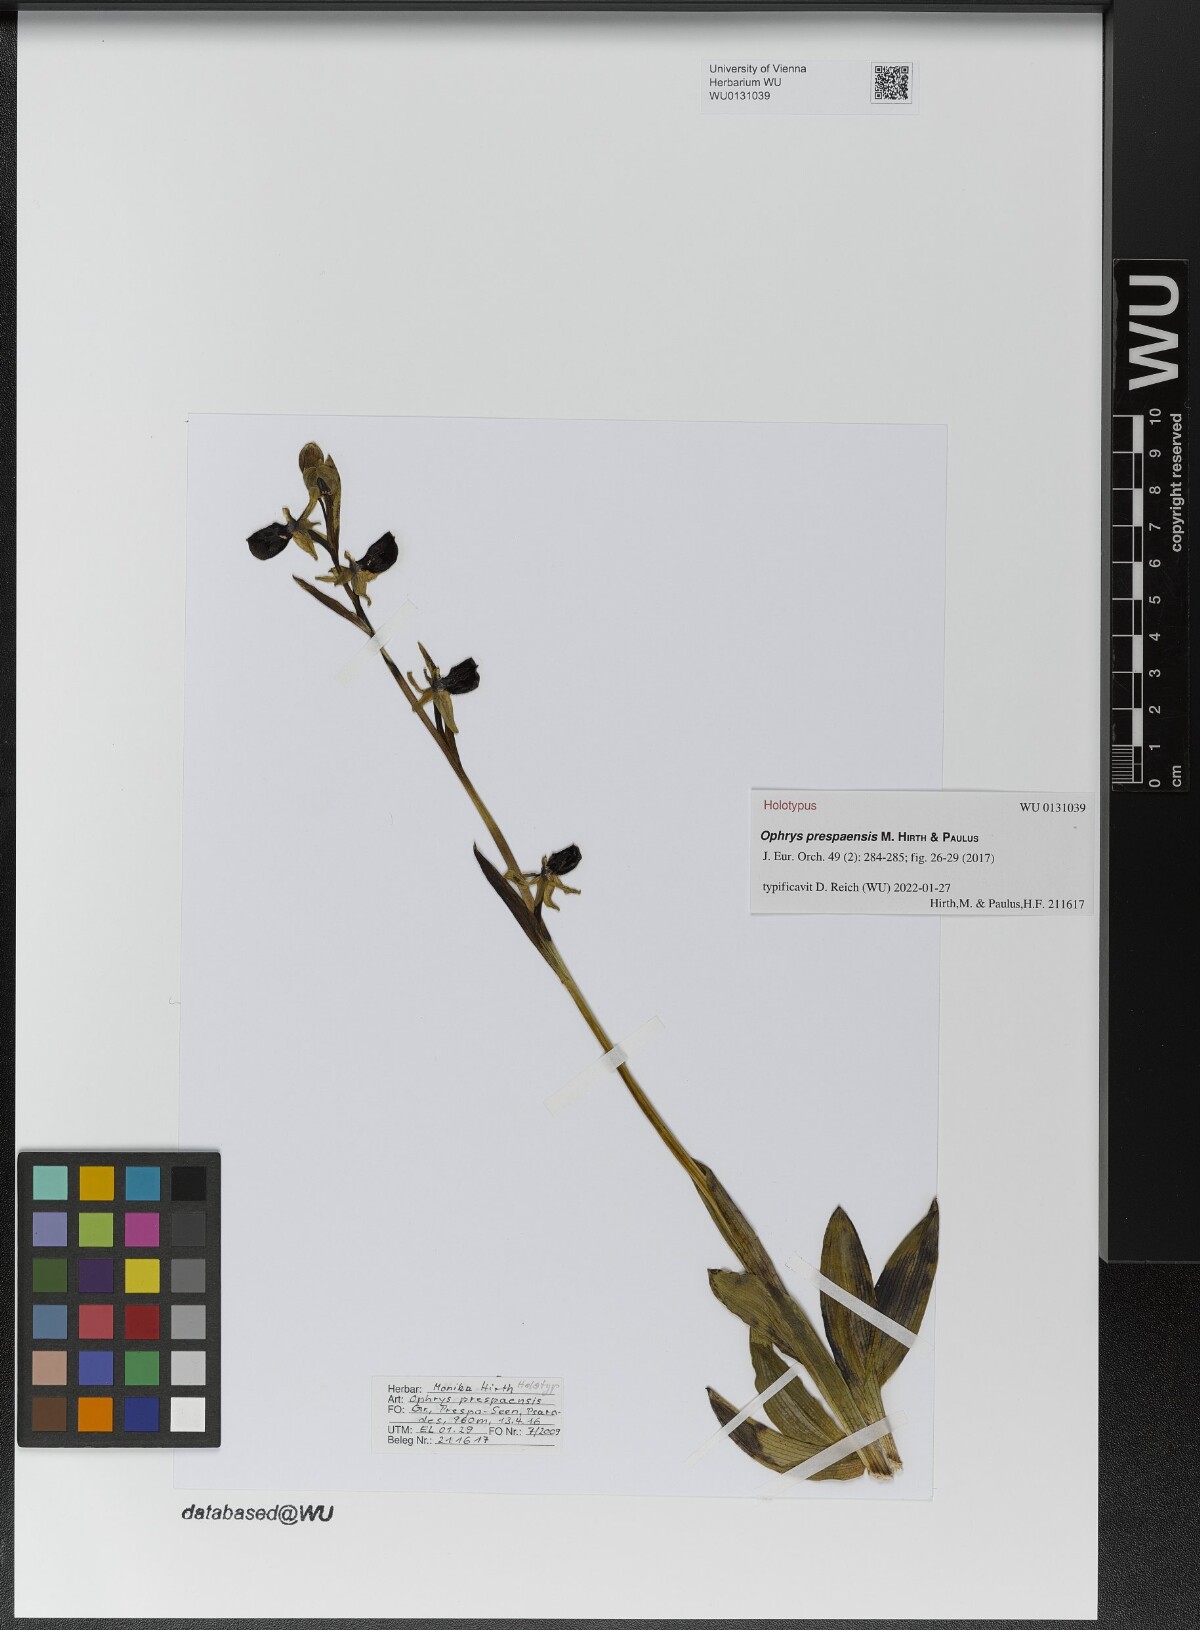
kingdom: Plantae
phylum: Tracheophyta
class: Liliopsida
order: Asparagales
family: Orchidaceae
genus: Ophrys
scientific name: Ophrys sphegodes
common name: Early spider-orchid
